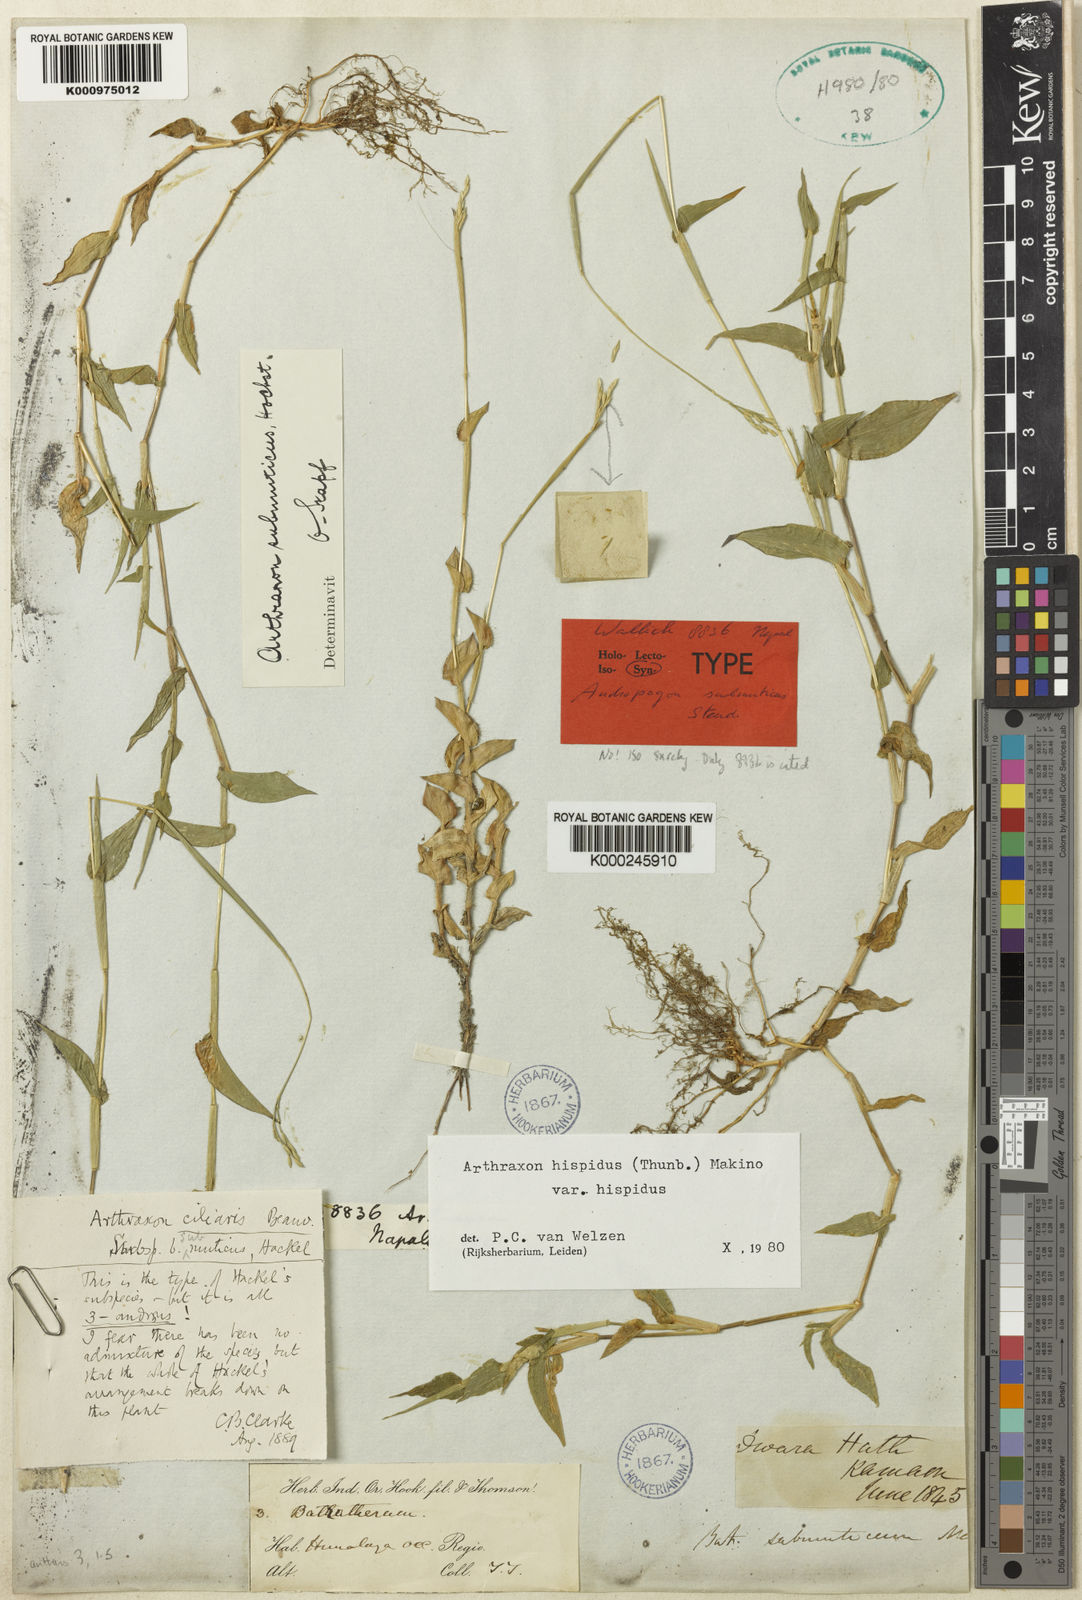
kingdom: Plantae
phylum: Tracheophyta
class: Liliopsida
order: Poales
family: Poaceae
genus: Arthraxon
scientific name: Arthraxon submuticus
